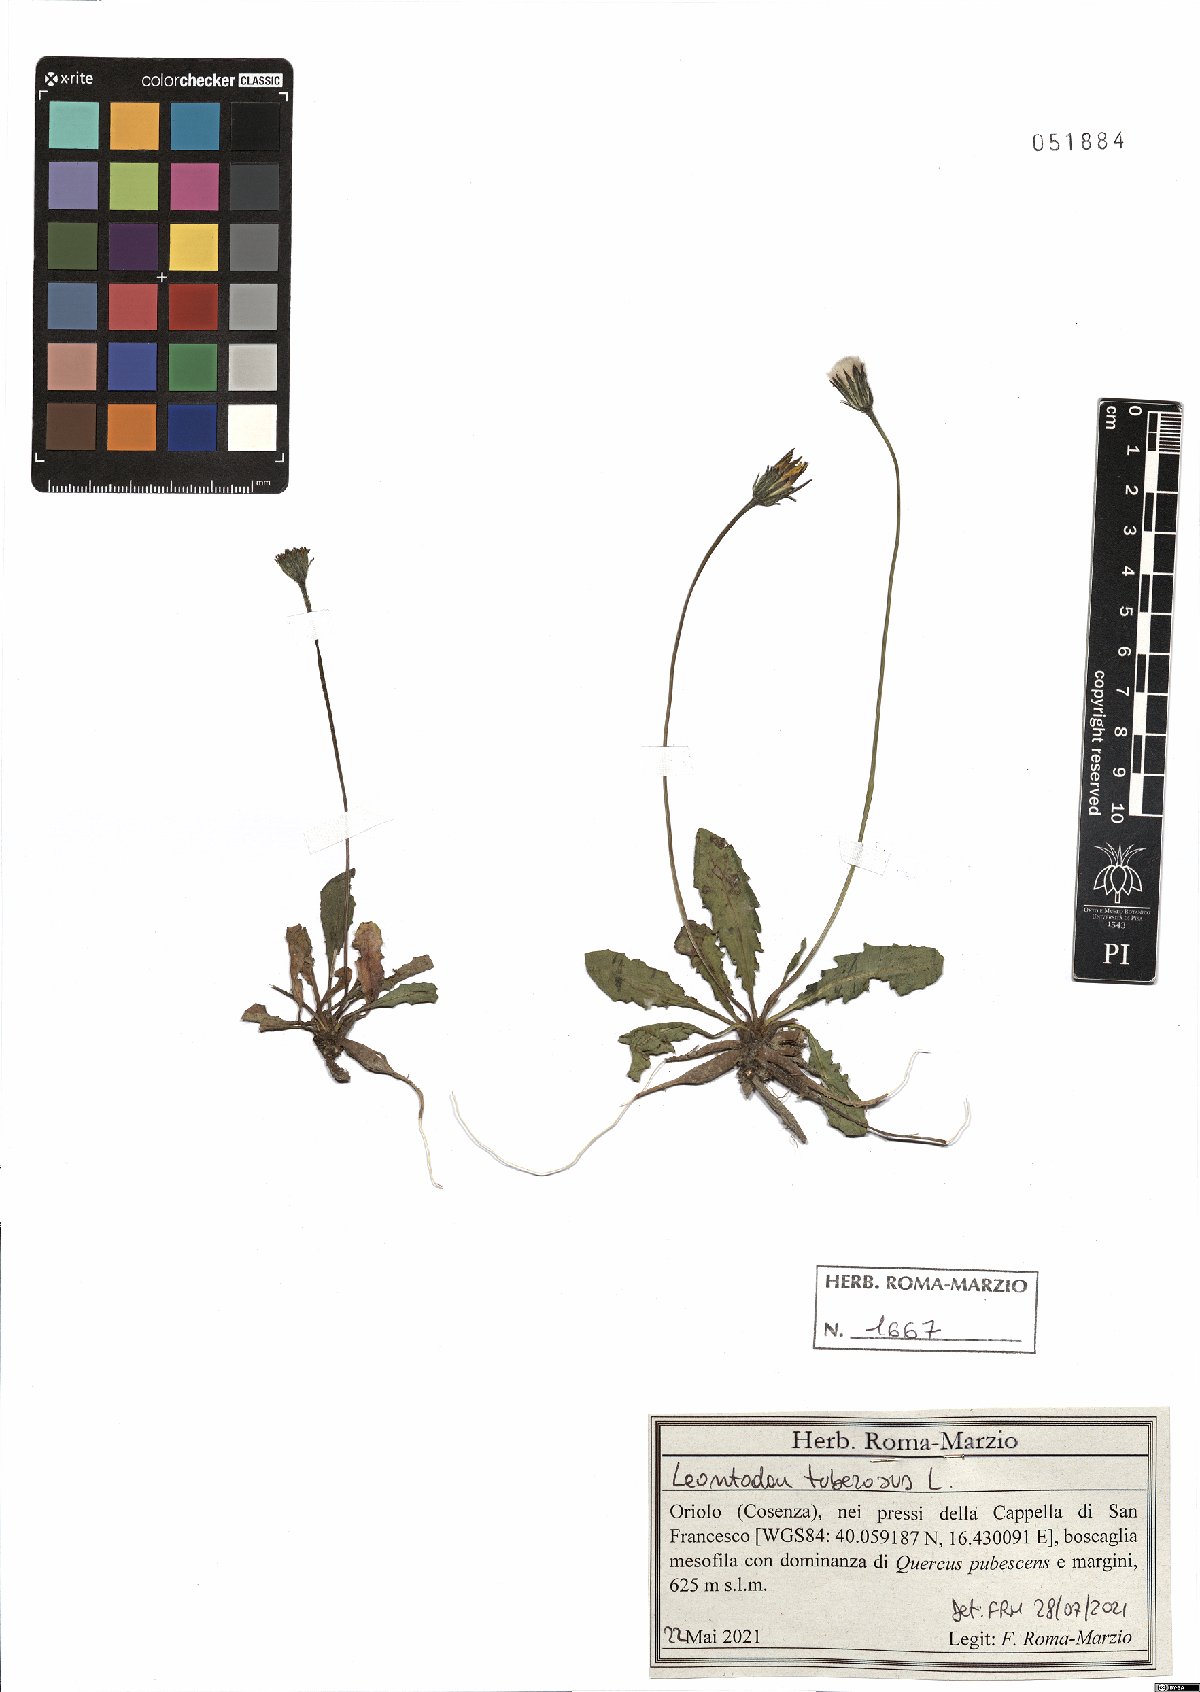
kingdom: Plantae
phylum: Tracheophyta
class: Magnoliopsida
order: Asterales
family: Asteraceae
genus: Thrincia
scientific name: Thrincia tuberosa
